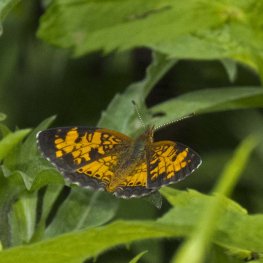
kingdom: Animalia
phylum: Arthropoda
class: Insecta
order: Lepidoptera
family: Nymphalidae
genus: Phyciodes
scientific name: Phyciodes tharos
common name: Northern Crescent
